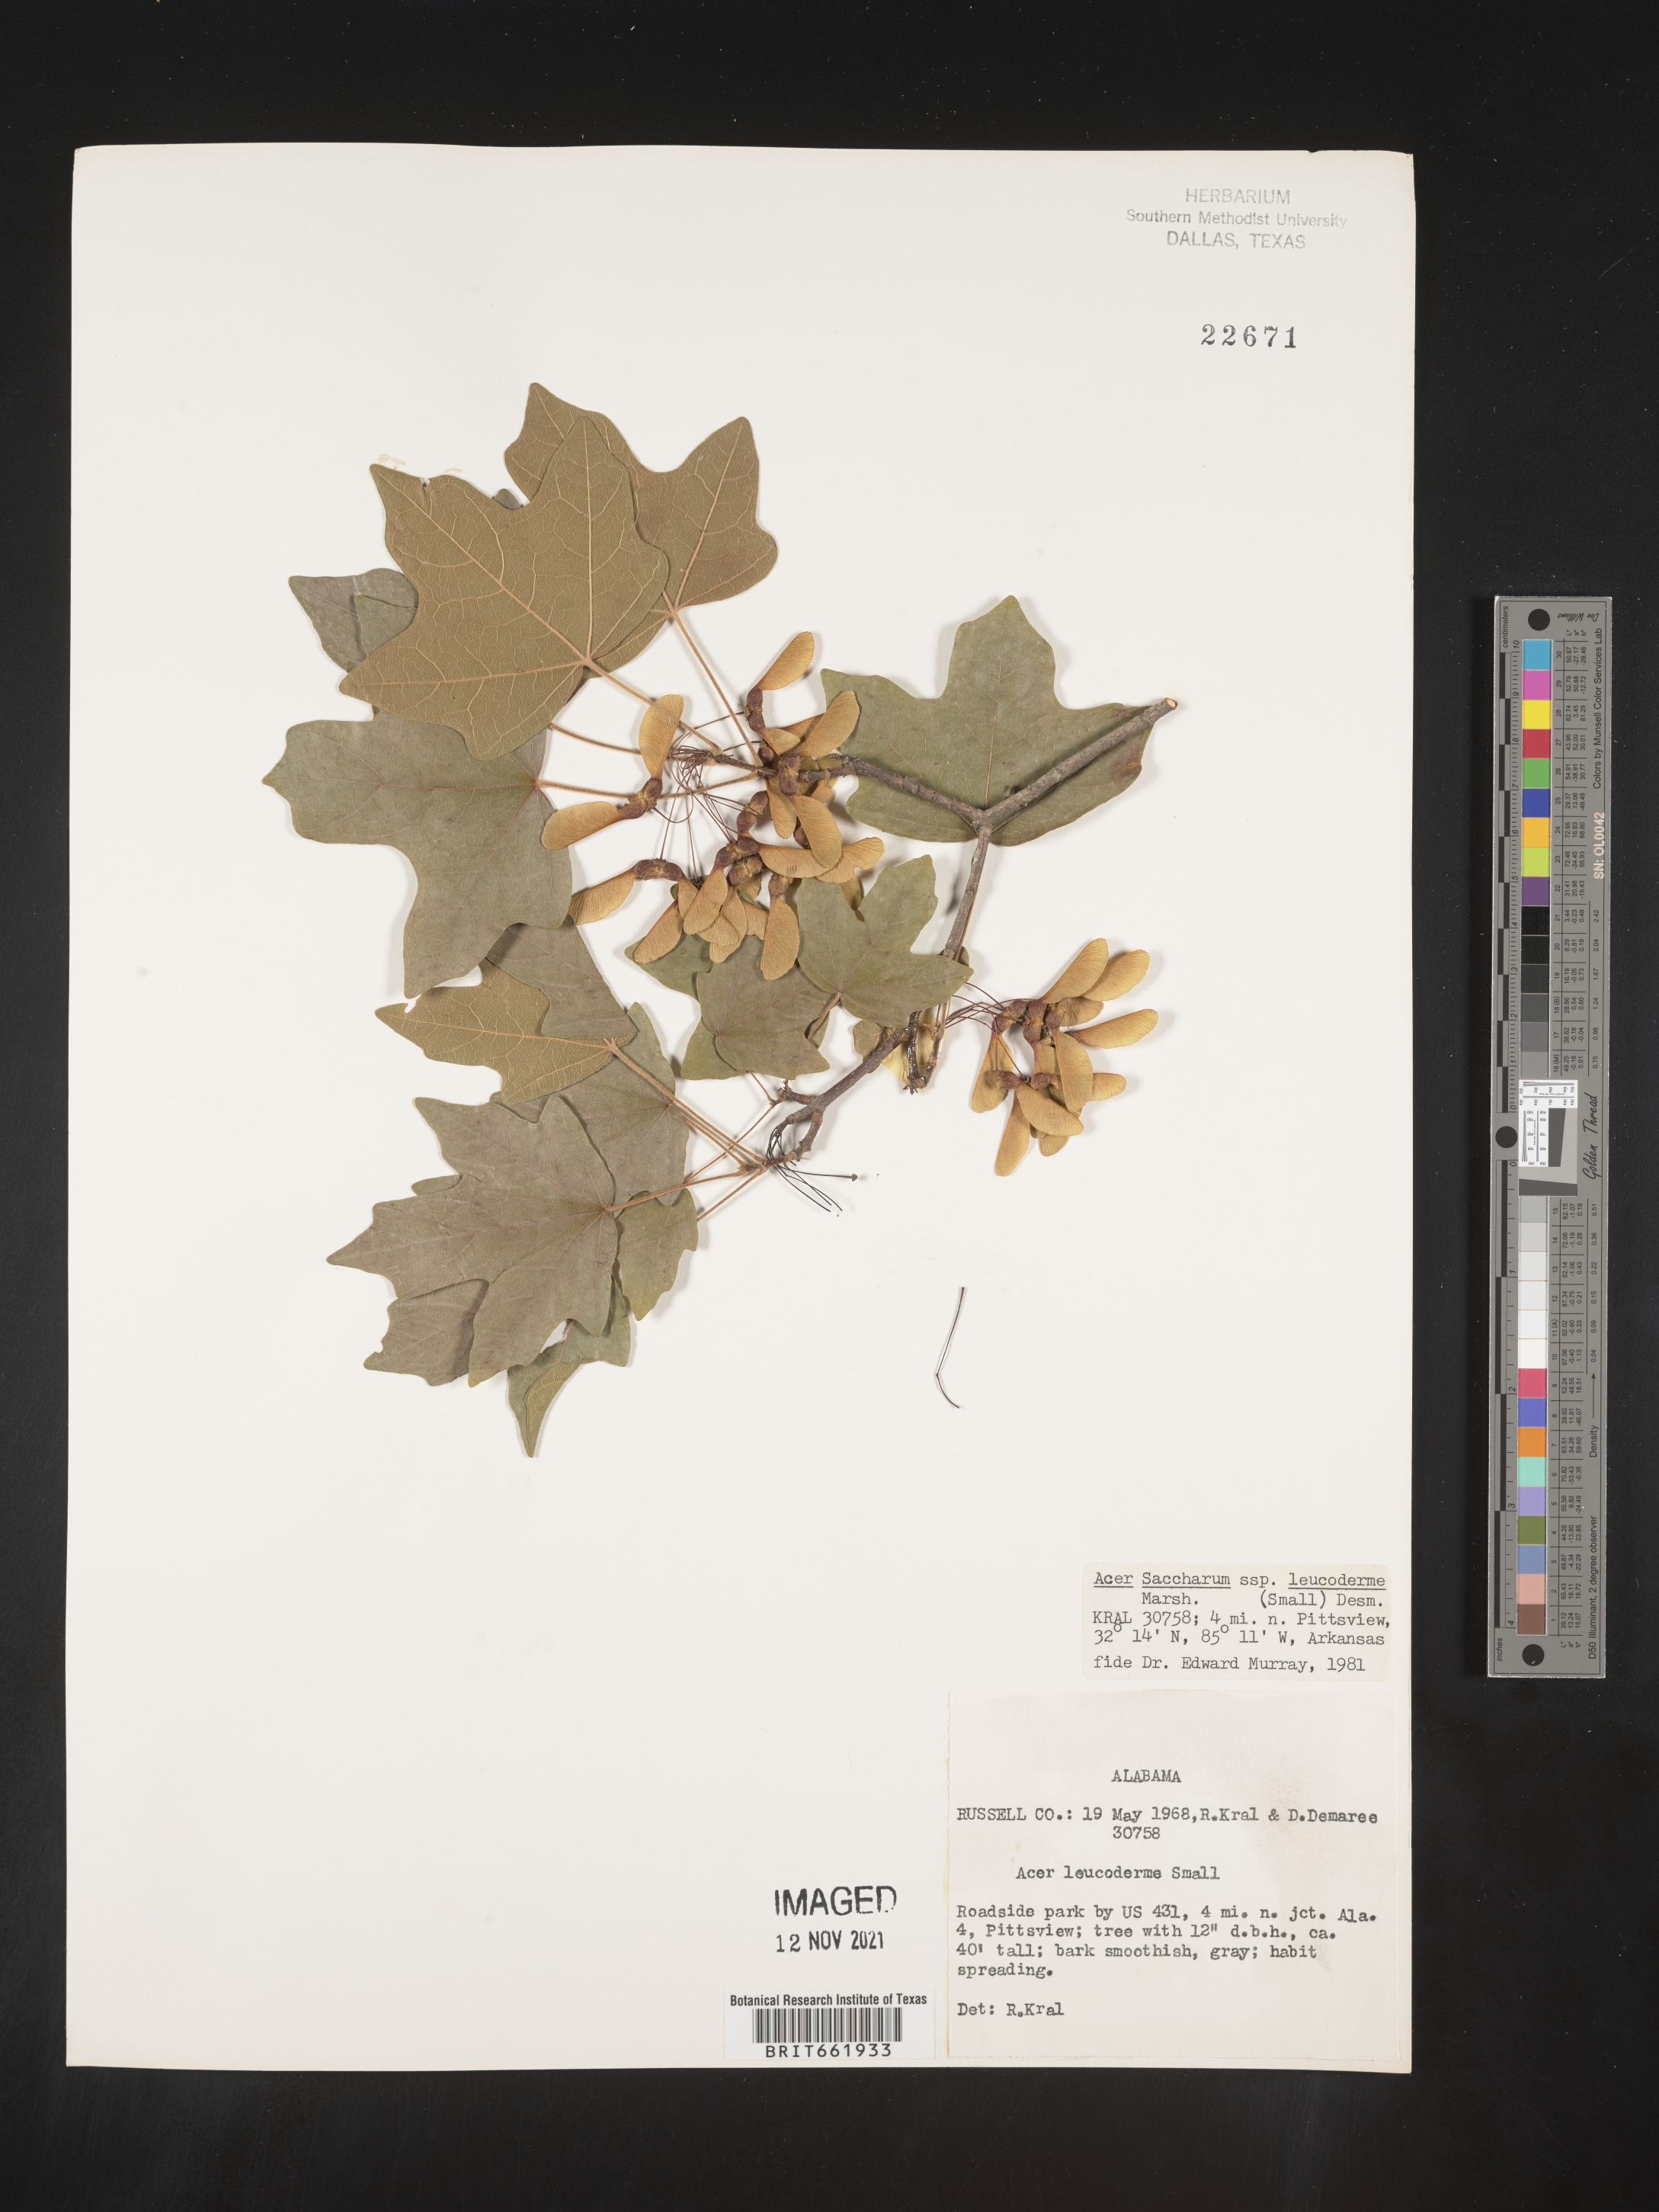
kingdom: Plantae
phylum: Tracheophyta
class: Magnoliopsida
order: Sapindales
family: Sapindaceae
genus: Acer
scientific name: Acer leucoderme
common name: Chalk maple
